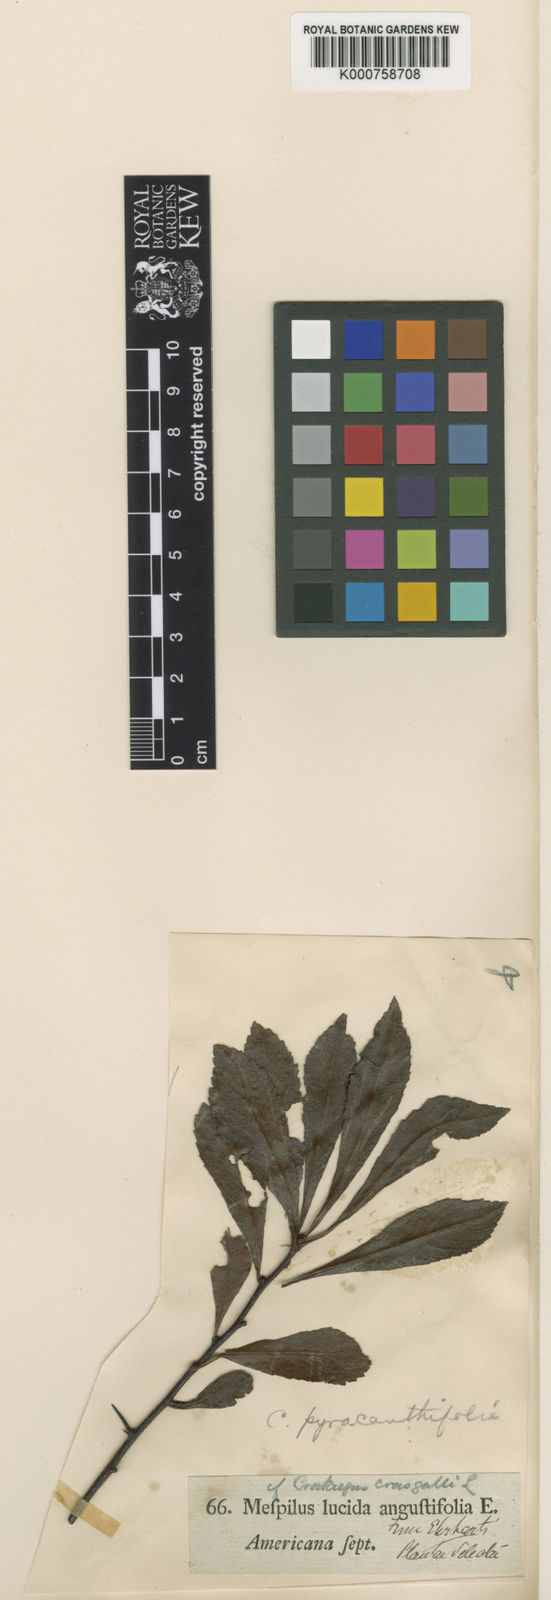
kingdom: Plantae
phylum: Tracheophyta
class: Magnoliopsida
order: Rosales
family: Rosaceae
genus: Crataegus
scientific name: Crataegus crus-galli
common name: Cockspurthorn
